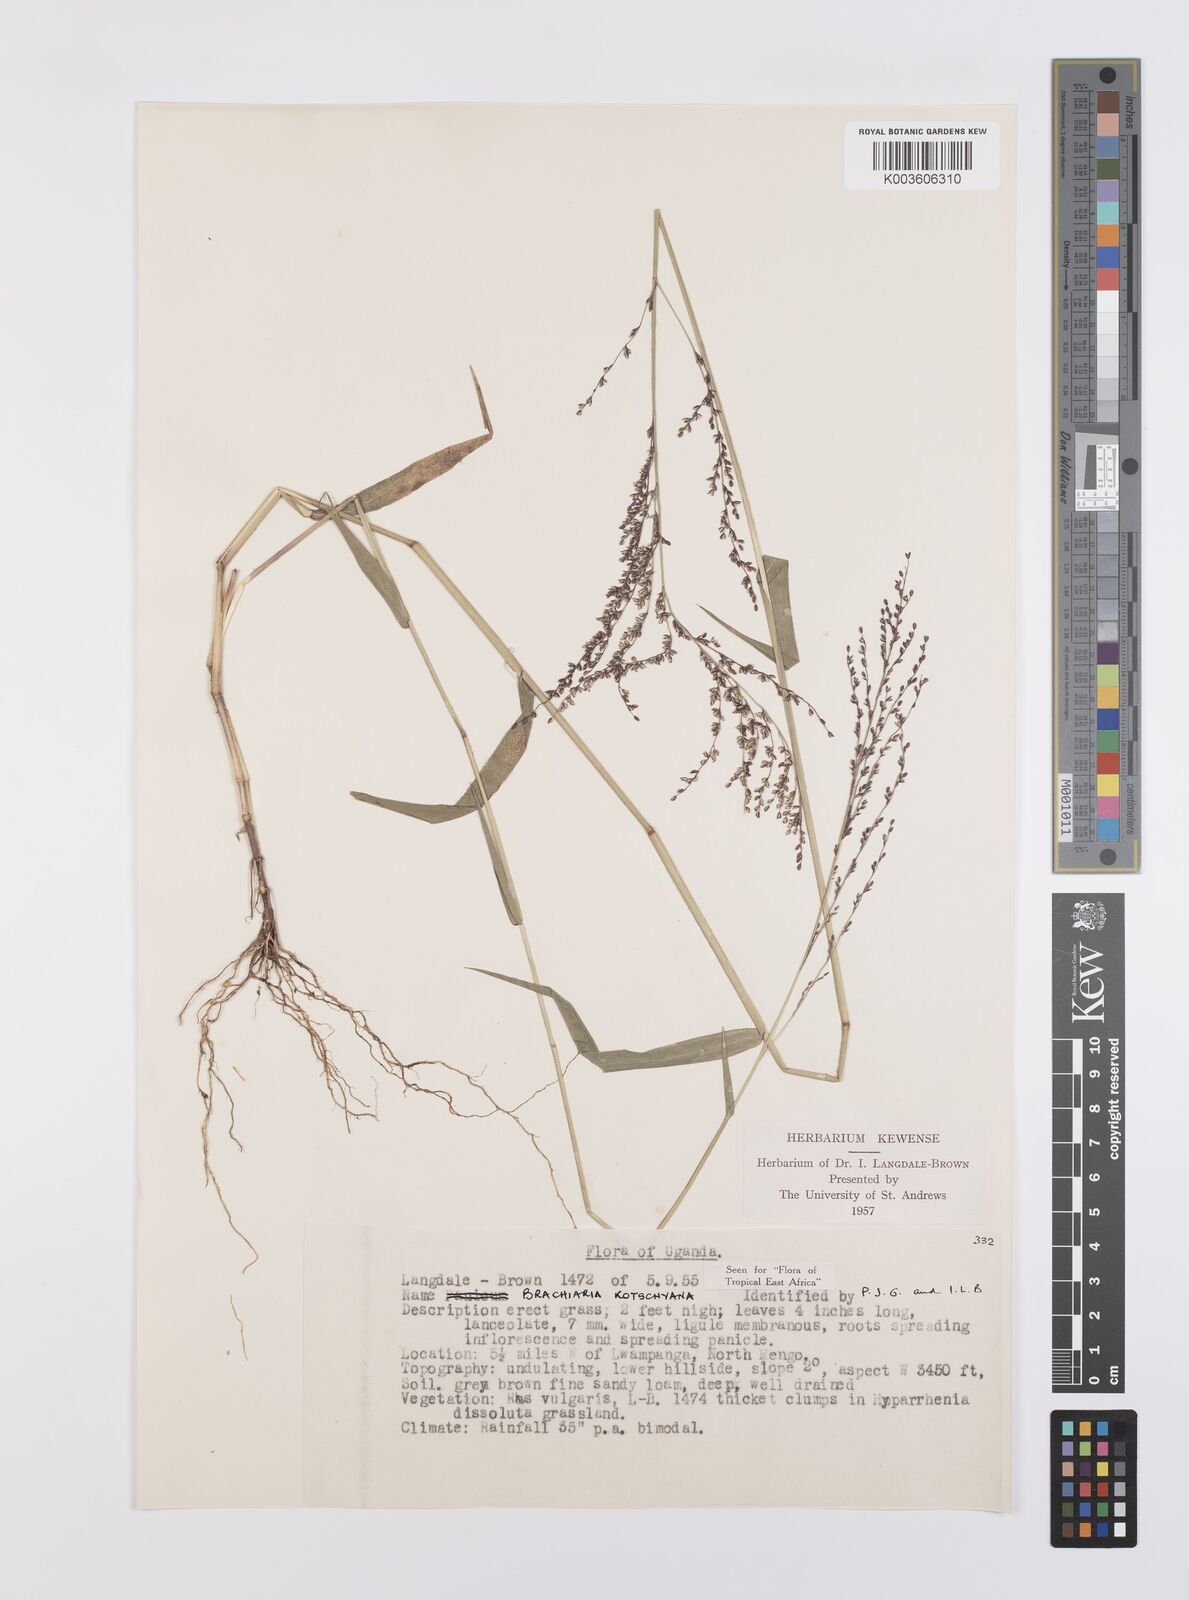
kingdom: Plantae
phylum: Tracheophyta
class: Liliopsida
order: Poales
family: Poaceae
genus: Urochloa
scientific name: Urochloa comata
